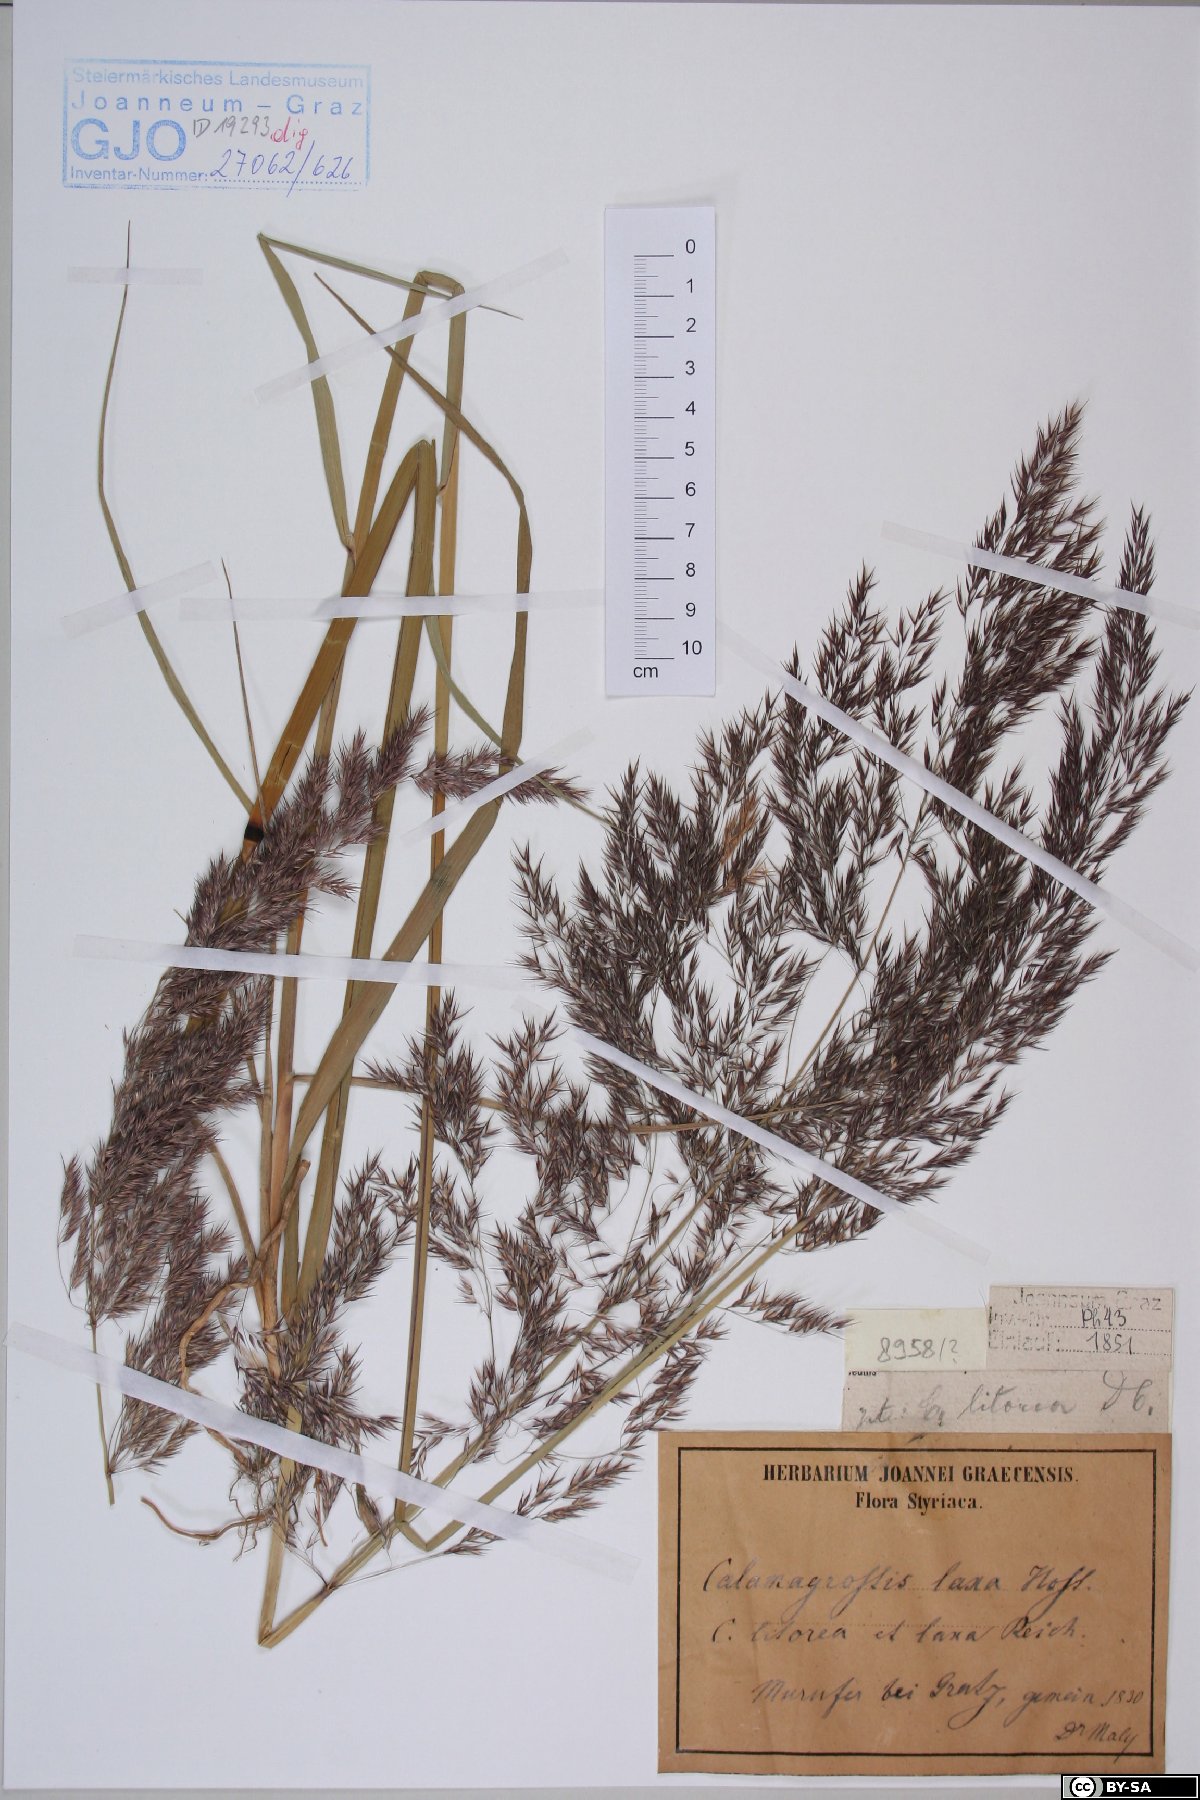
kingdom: Plantae
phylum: Tracheophyta
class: Liliopsida
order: Poales
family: Poaceae
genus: Calamagrostis
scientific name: Calamagrostis pseudophragmites
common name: Coastal small-reed
